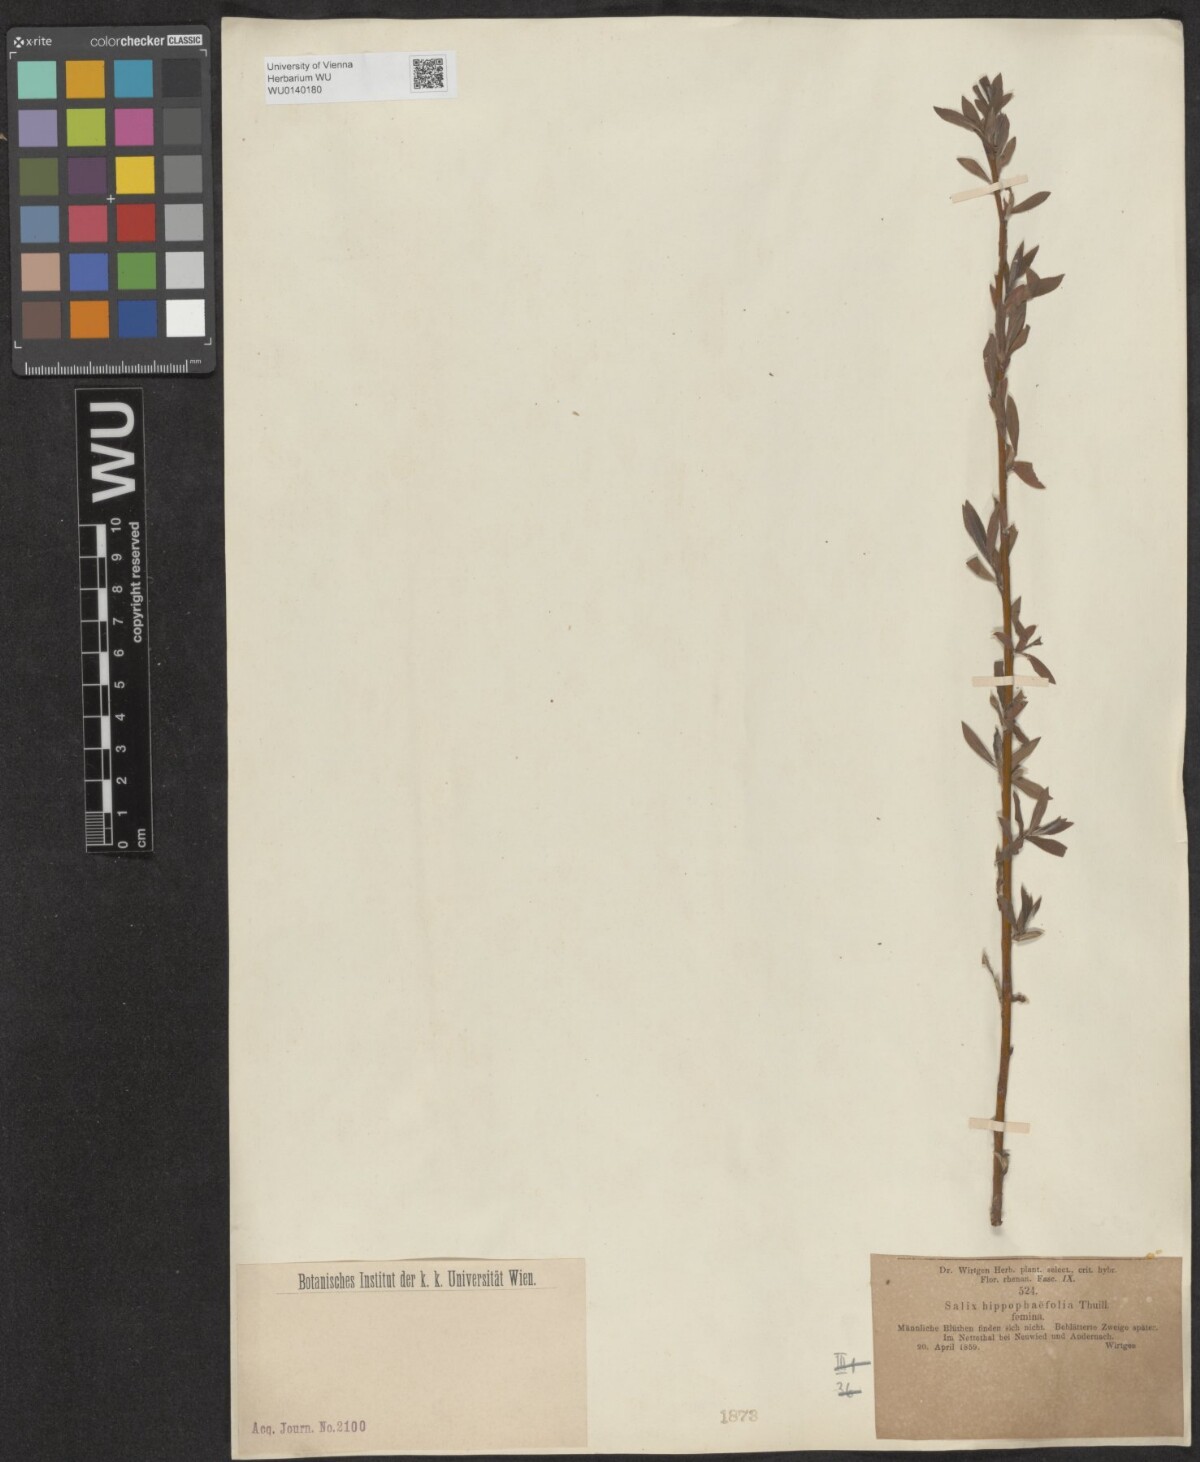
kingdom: Plantae
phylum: Tracheophyta
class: Magnoliopsida
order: Malpighiales
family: Salicaceae
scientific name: Salicaceae
